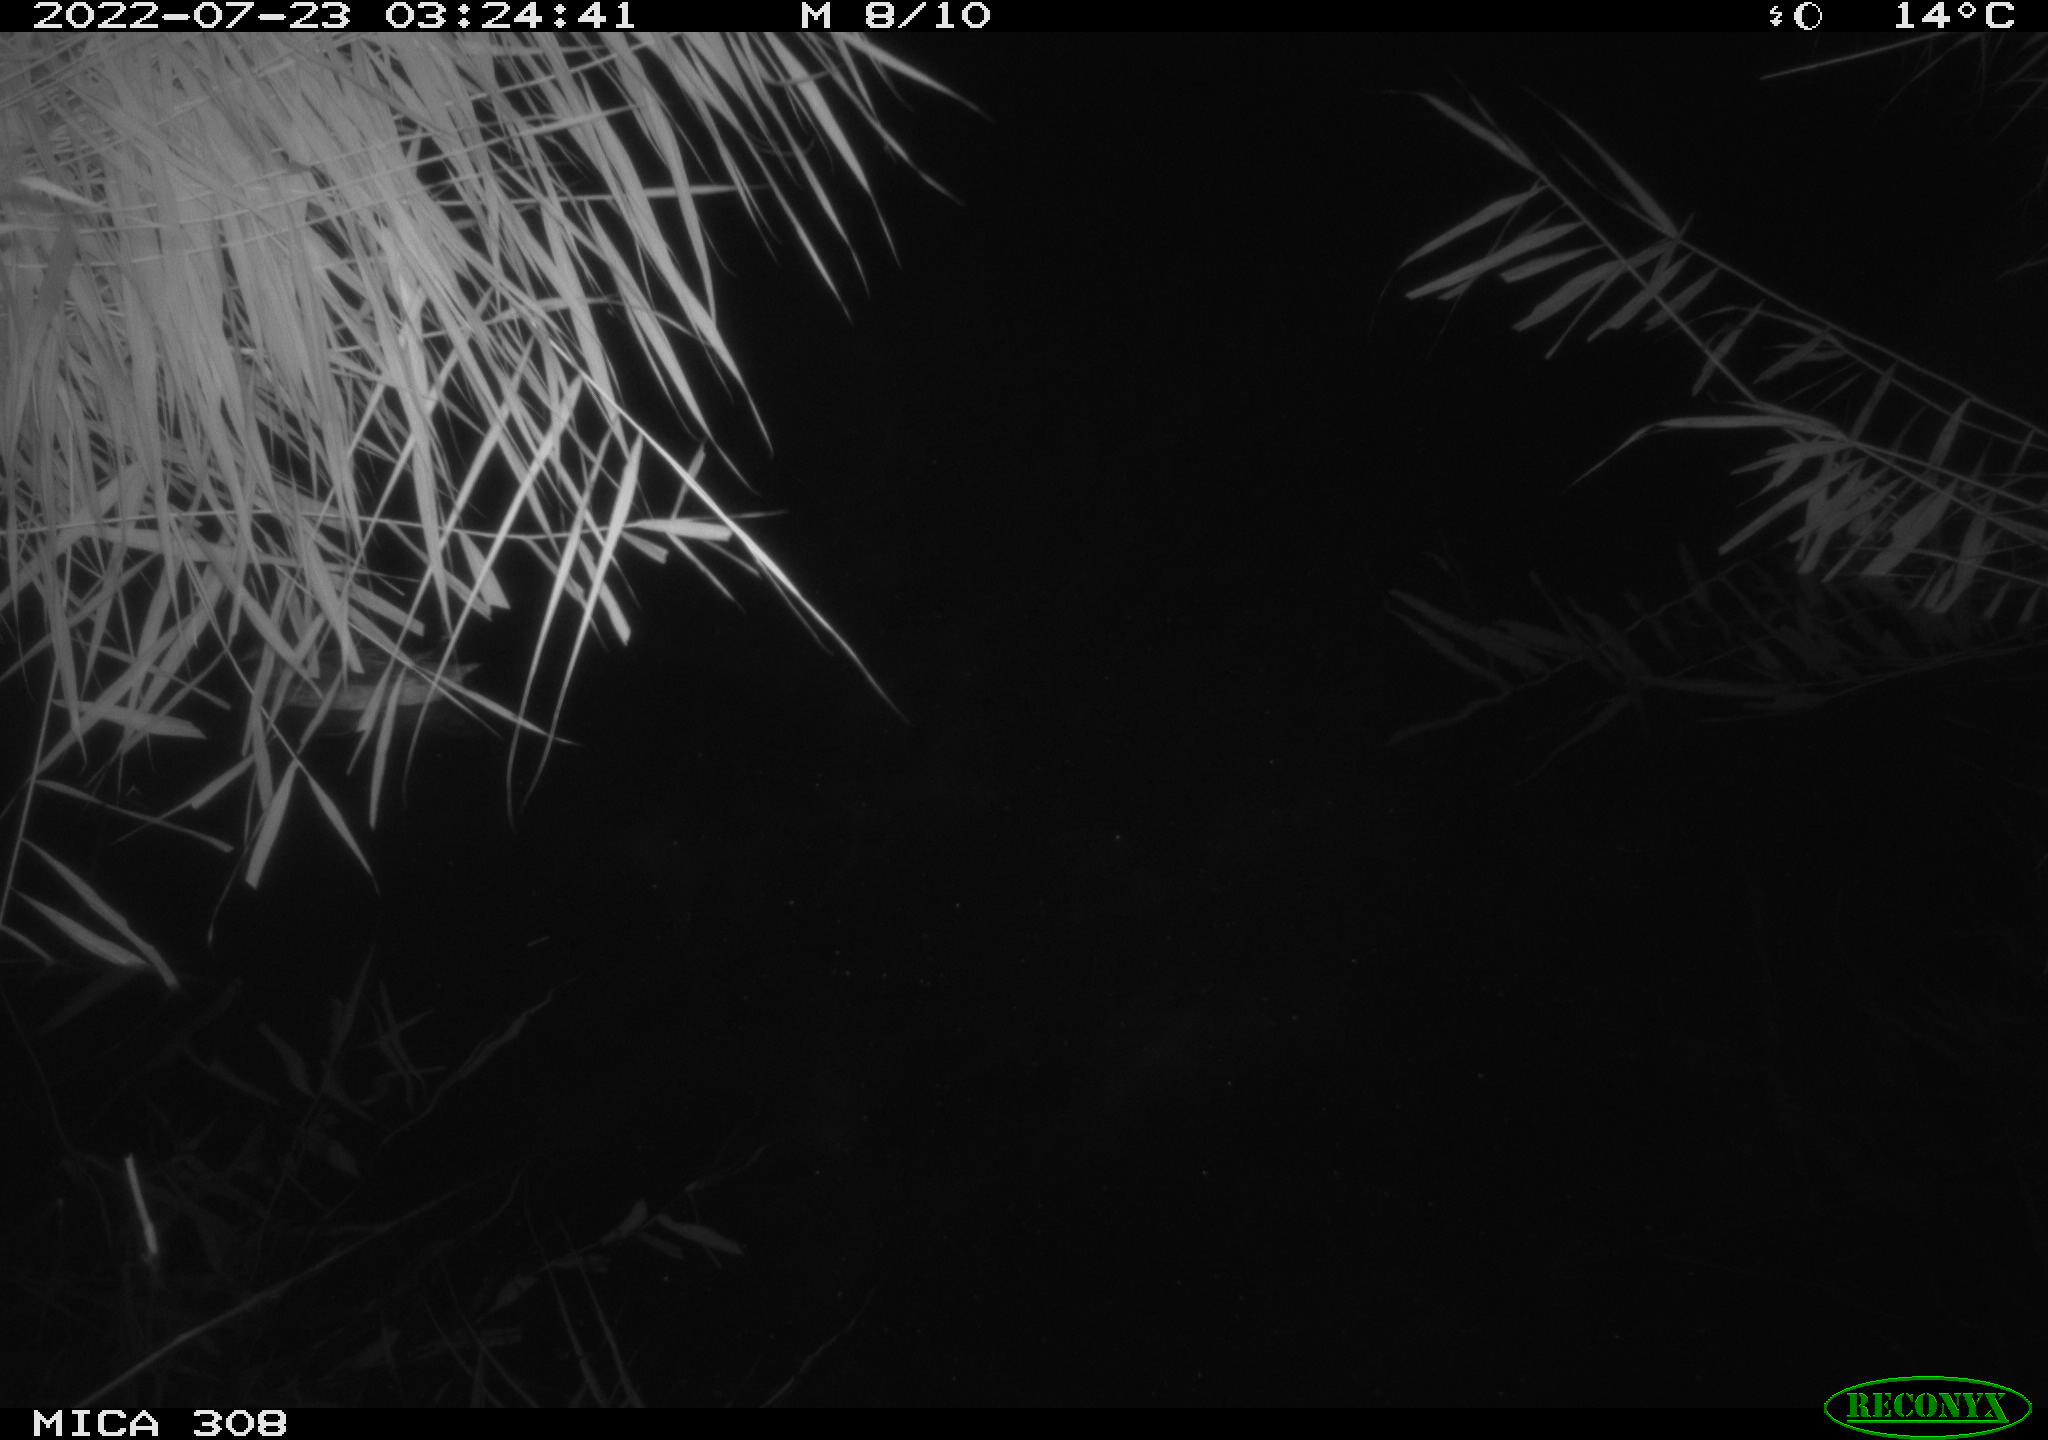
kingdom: Animalia
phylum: Chordata
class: Aves
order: Anseriformes
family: Anatidae
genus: Anas
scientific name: Anas platyrhynchos
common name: Mallard
